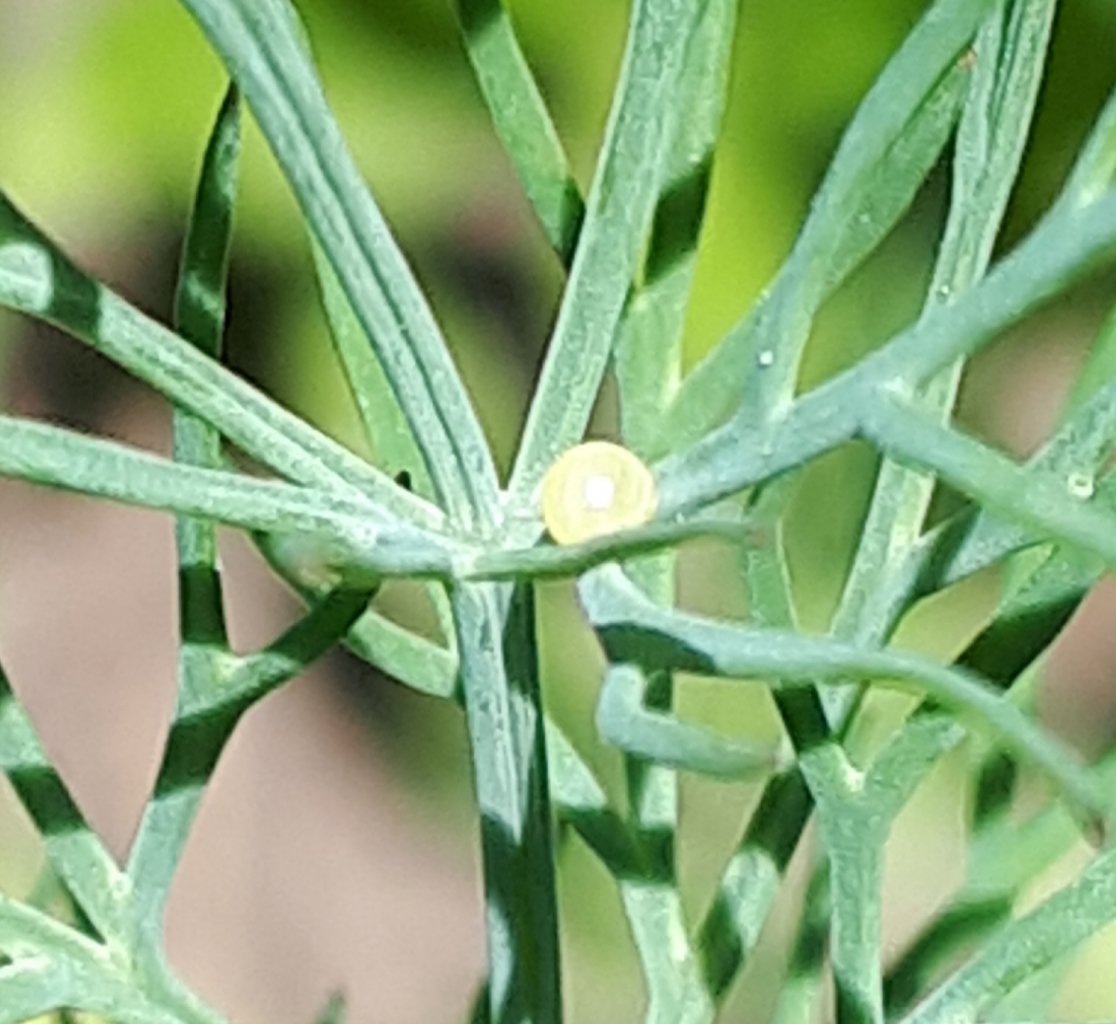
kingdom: Animalia
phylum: Arthropoda
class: Insecta
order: Lepidoptera
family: Papilionidae
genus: Papilio
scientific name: Papilio polyxenes
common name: Black Swallowtail
